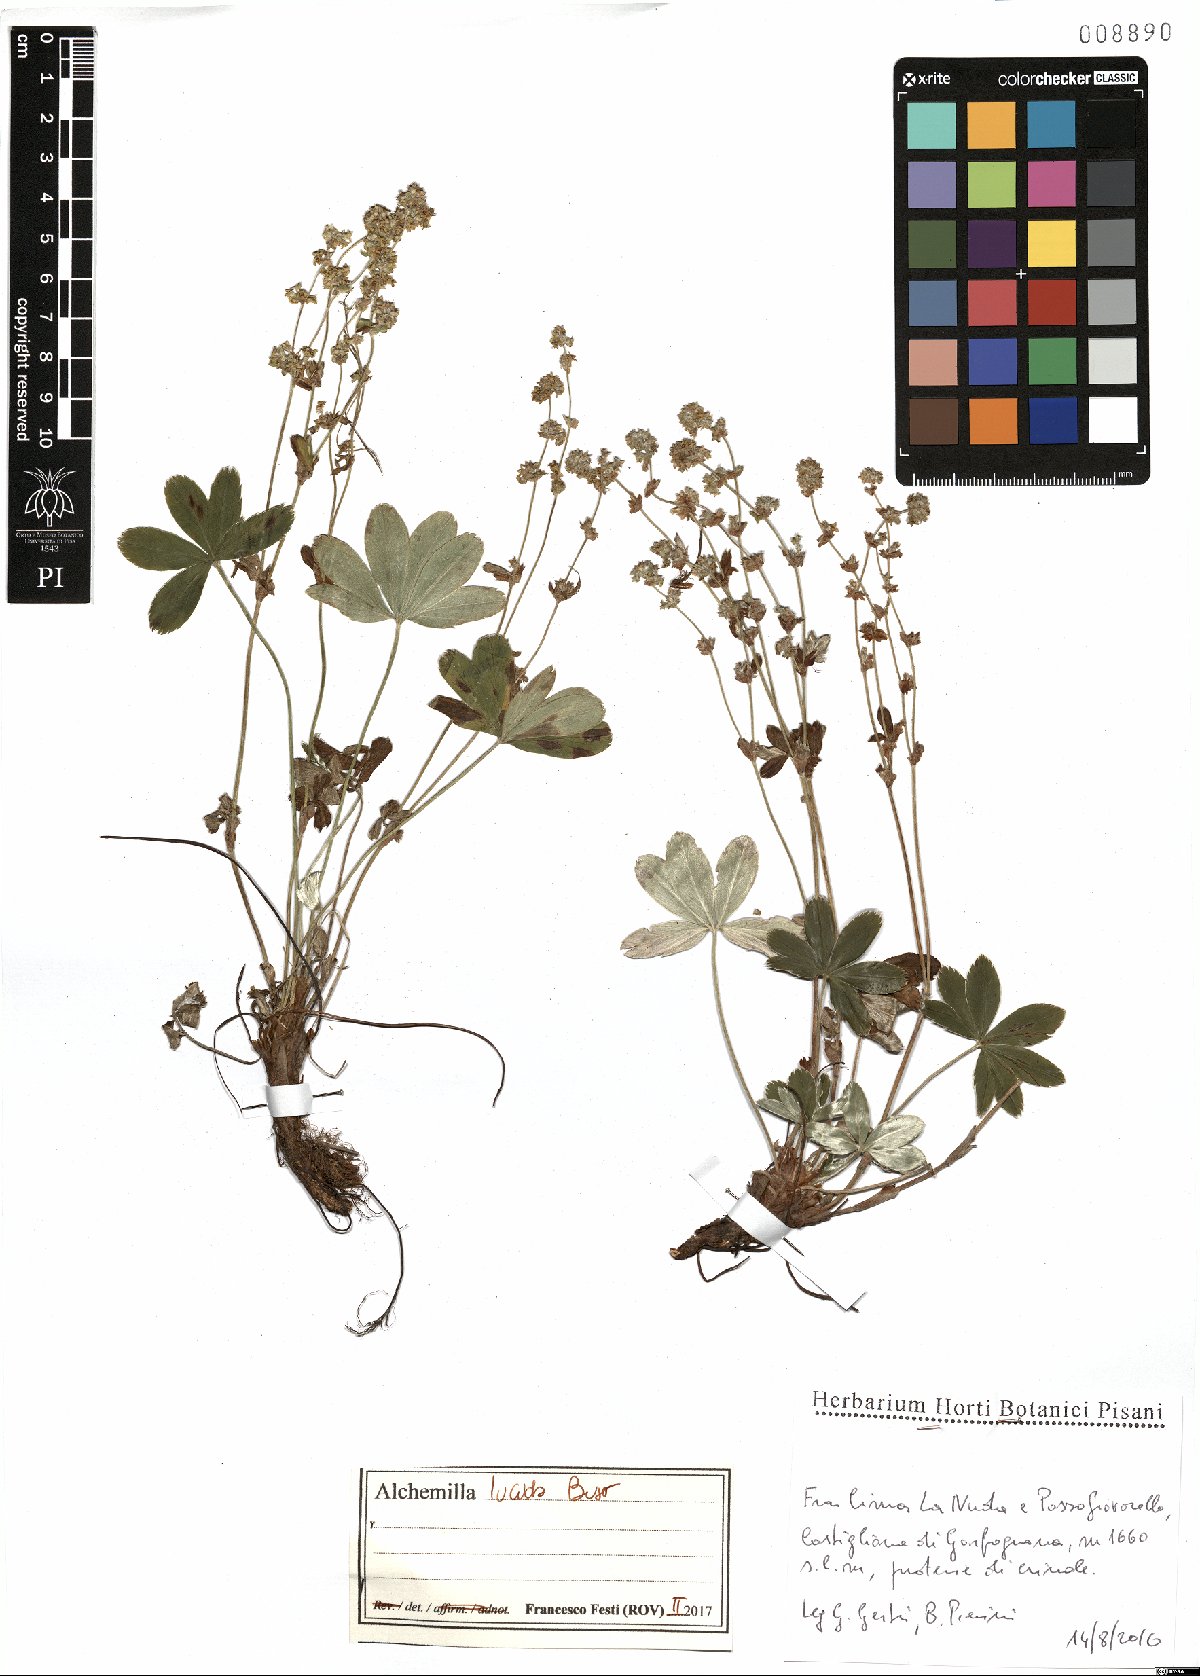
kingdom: Plantae
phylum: Tracheophyta
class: Magnoliopsida
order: Rosales
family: Rosaceae
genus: Alchemilla
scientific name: Alchemilla lucida
